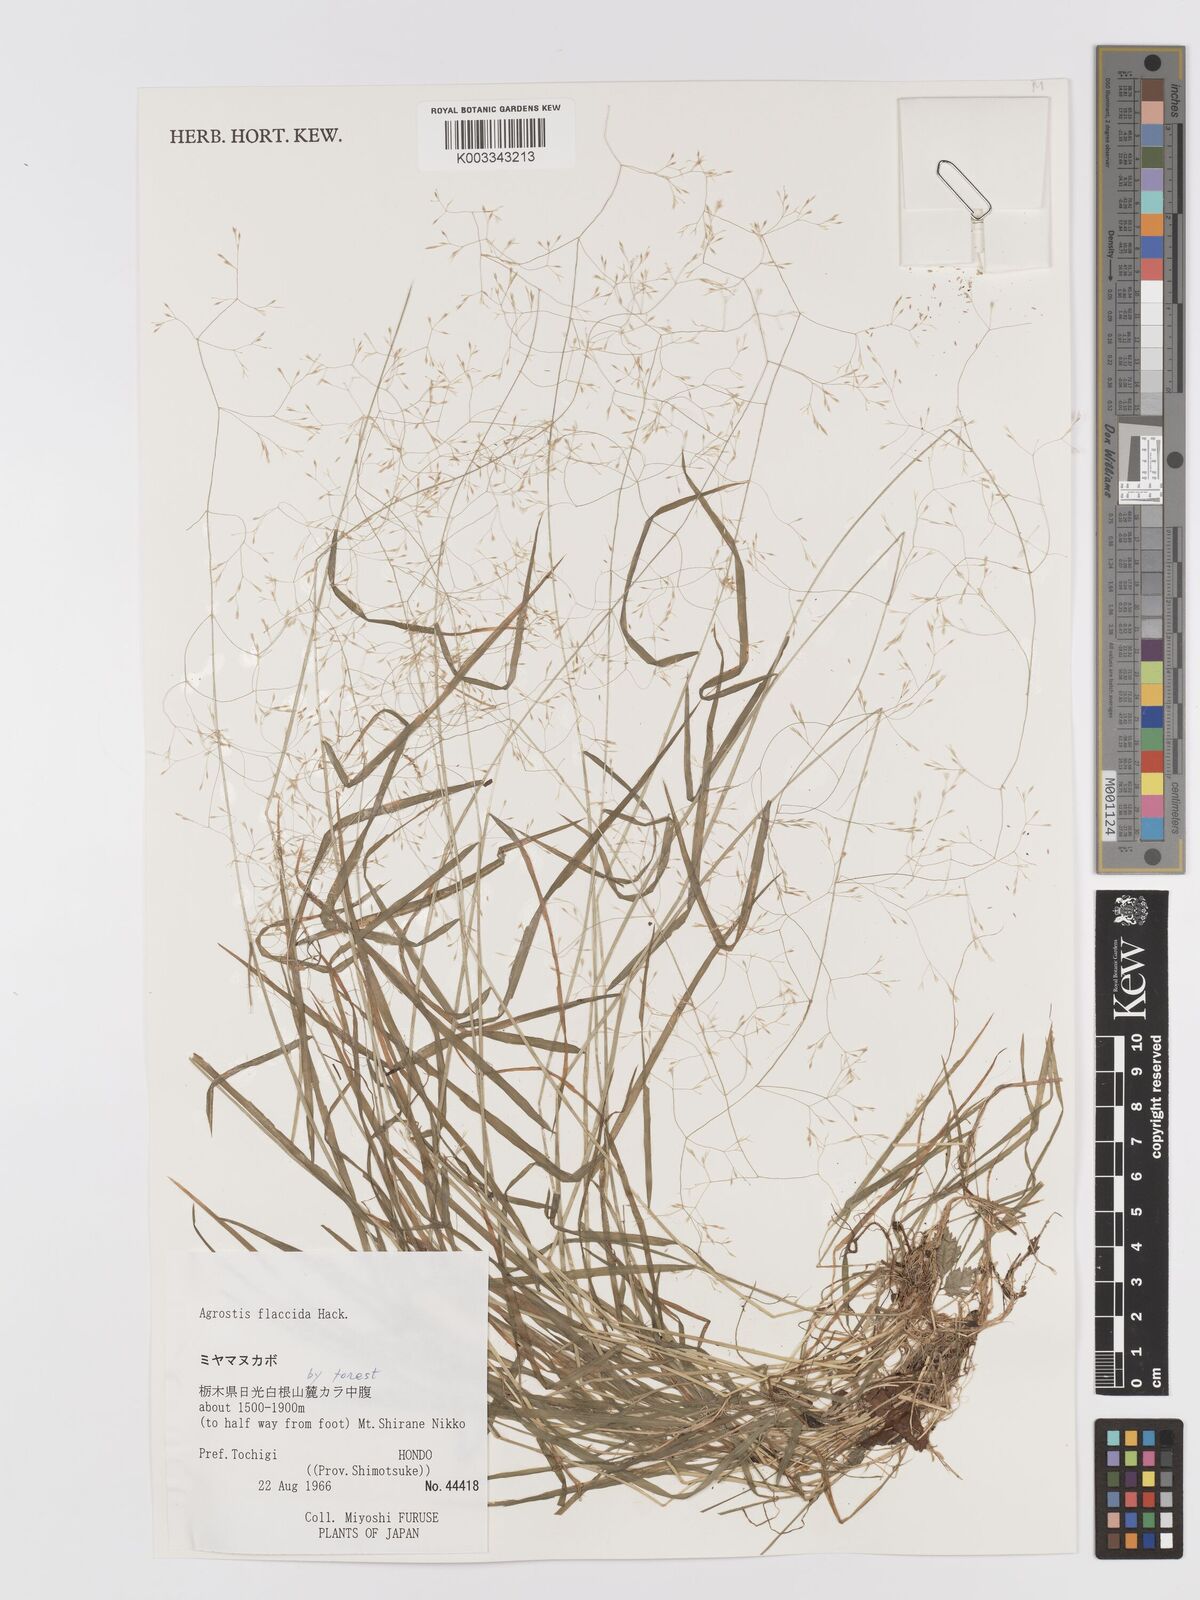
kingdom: Plantae
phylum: Tracheophyta
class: Liliopsida
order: Poales
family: Poaceae
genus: Agrostis
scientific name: Agrostis flaccida
